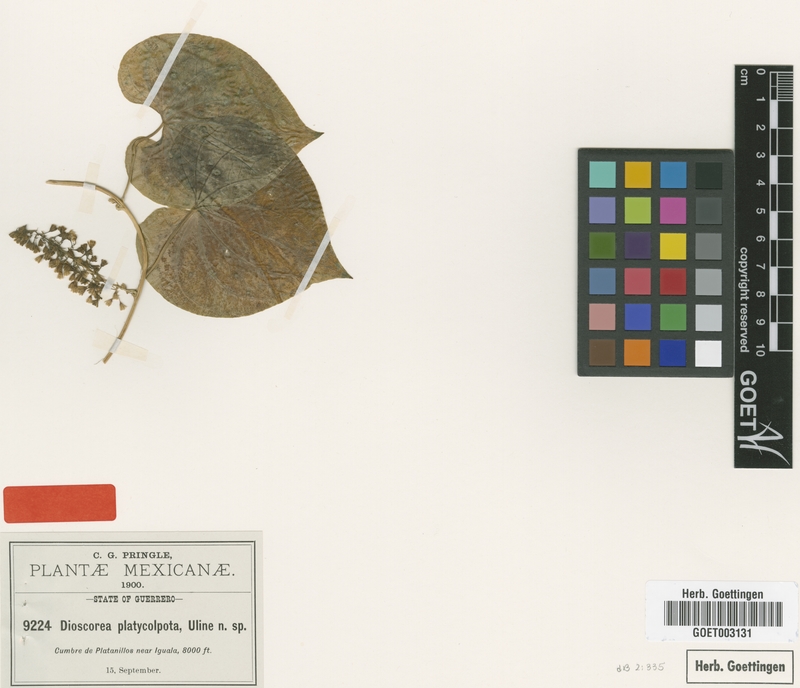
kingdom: Plantae
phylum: Tracheophyta
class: Liliopsida
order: Dioscoreales
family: Dioscoreaceae
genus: Dioscorea
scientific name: Dioscorea platycolpota
